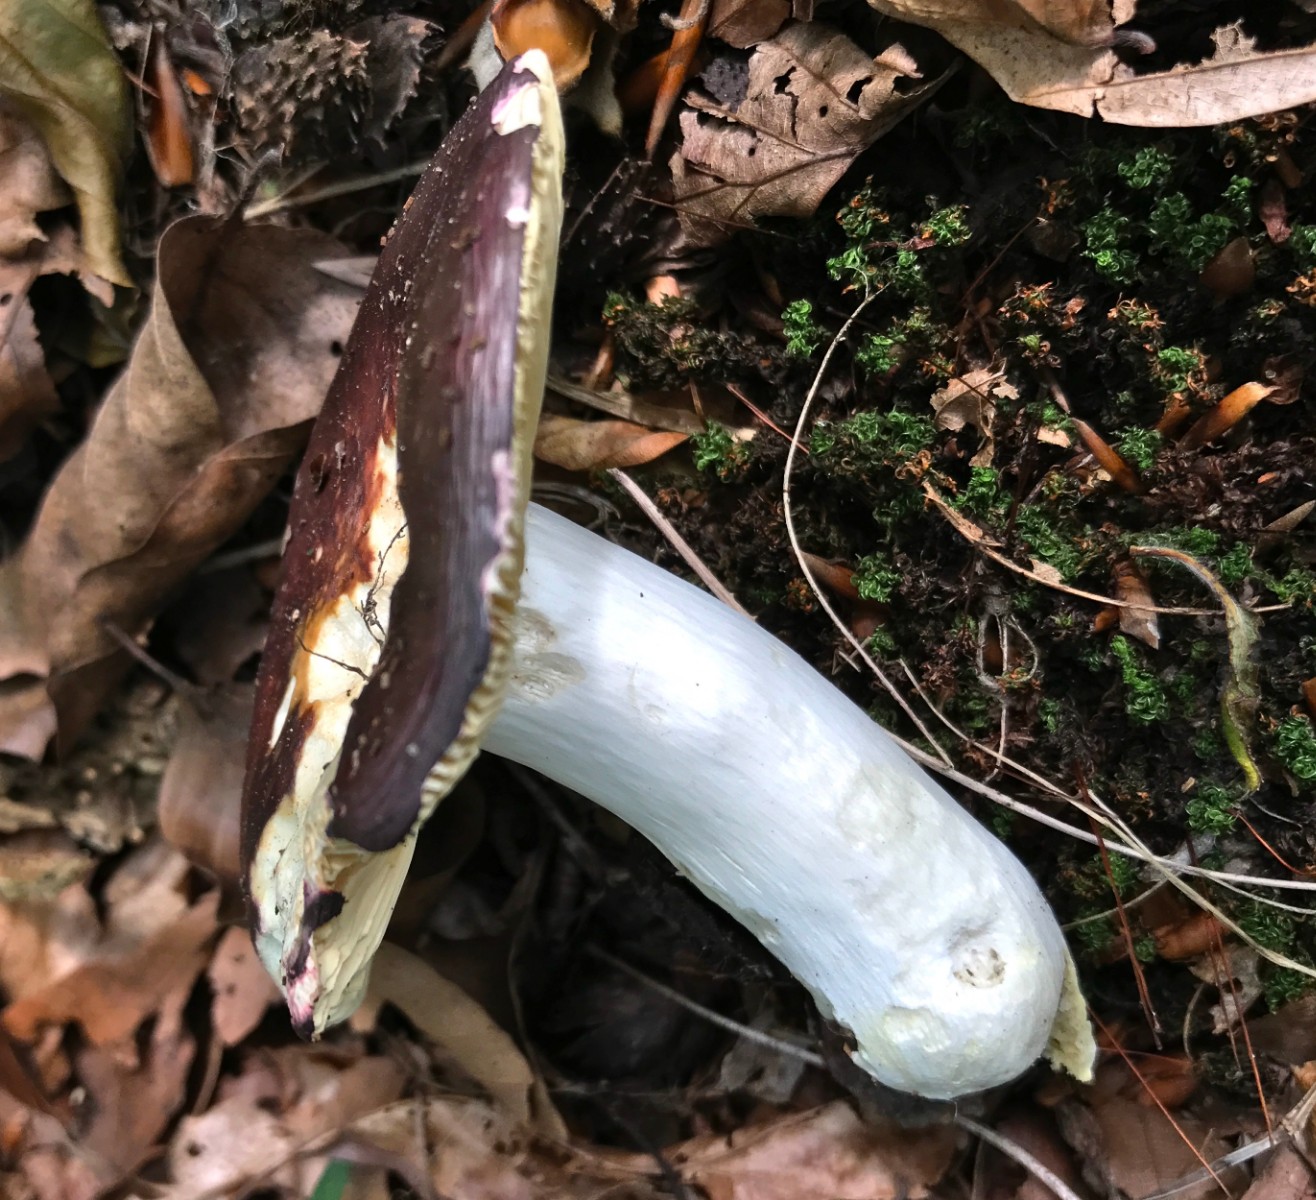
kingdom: Fungi
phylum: Basidiomycota
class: Agaricomycetes
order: Russulales
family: Russulaceae
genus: Russula
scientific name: Russula
